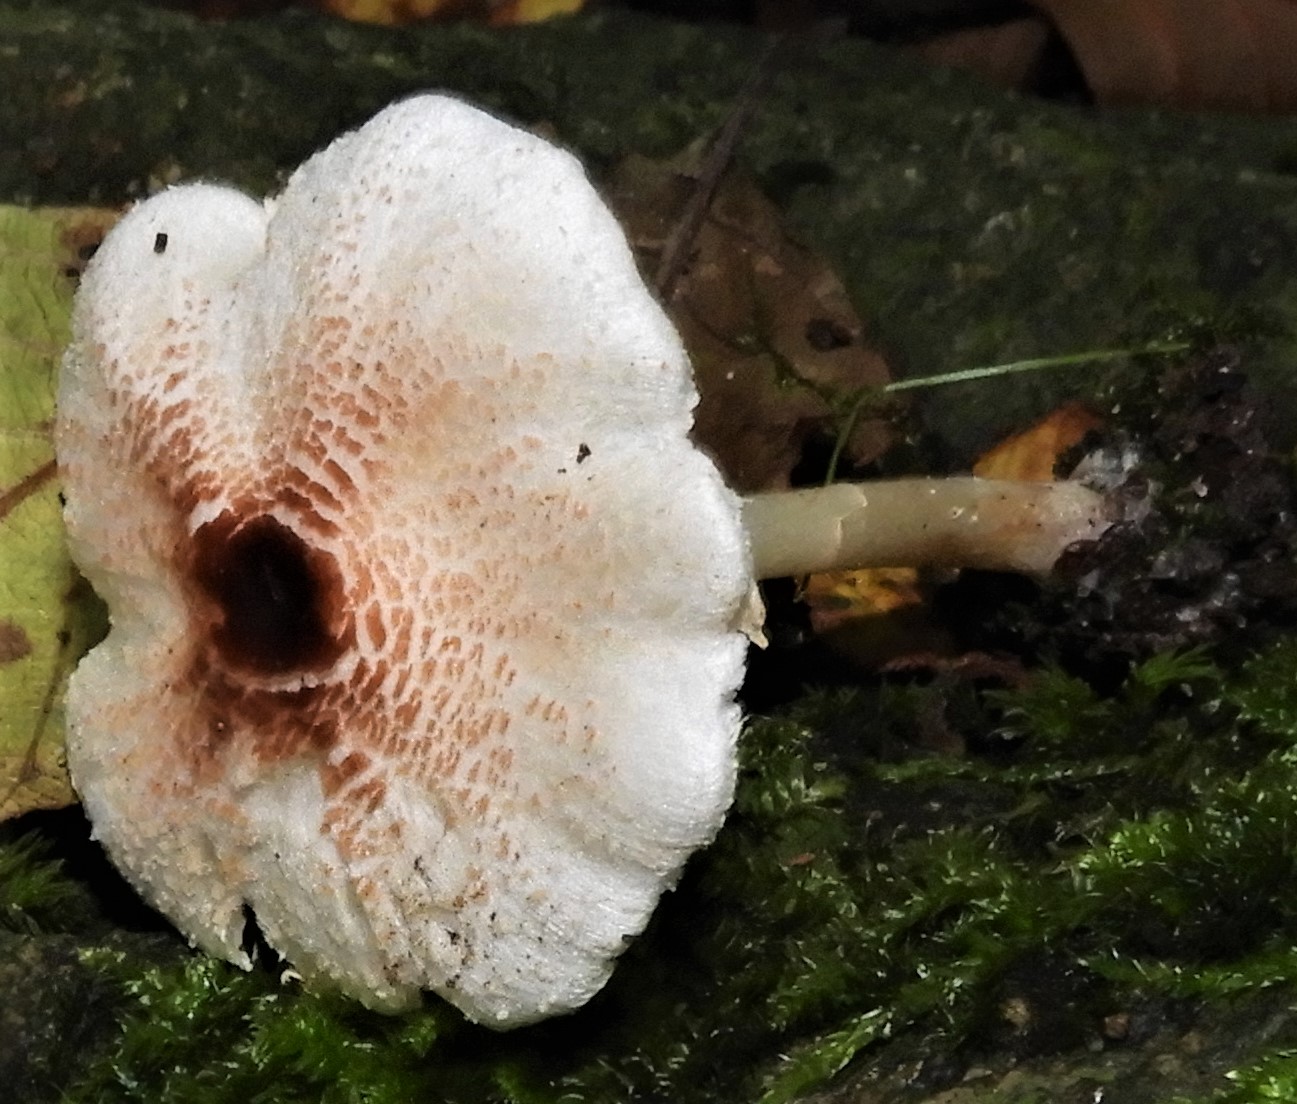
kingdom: Fungi
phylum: Basidiomycota
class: Agaricomycetes
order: Agaricales
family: Agaricaceae
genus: Lepiota
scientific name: Lepiota cristata
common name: stinkende parasolhat
